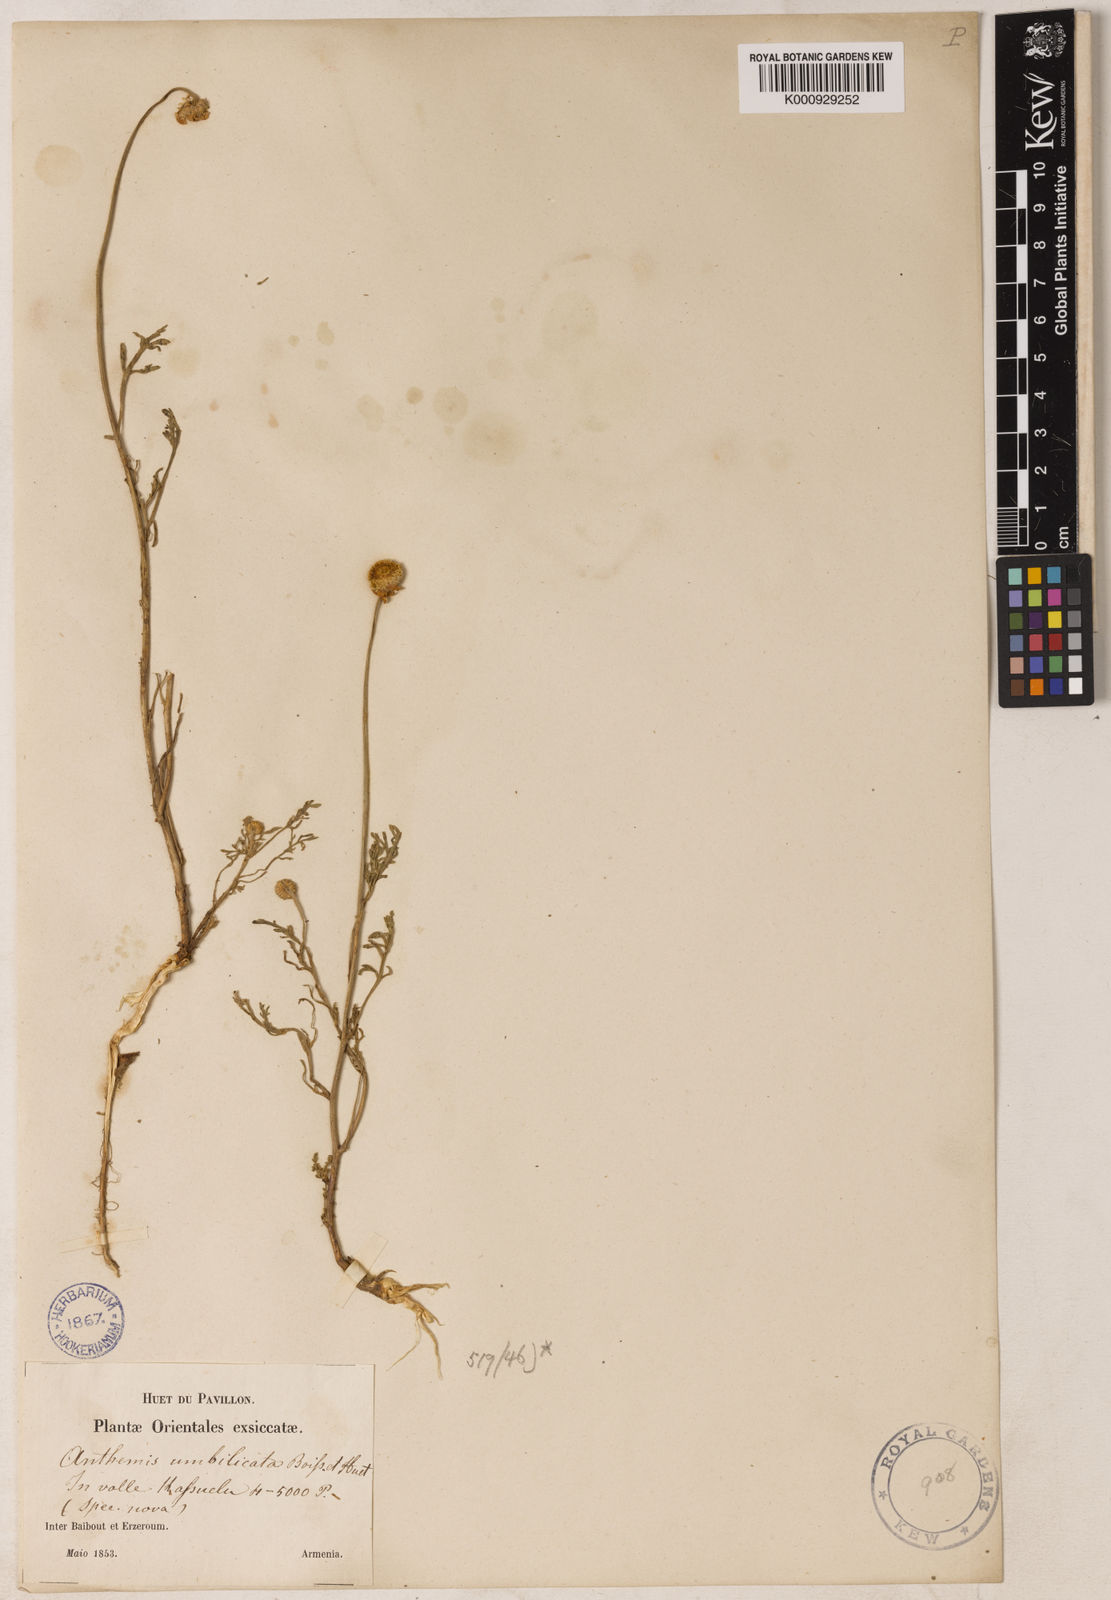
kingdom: Plantae
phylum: Tracheophyta
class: Magnoliopsida
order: Asterales
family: Asteraceae
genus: Anthemis
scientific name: Anthemis cretica
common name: Mountain dog-daisy
